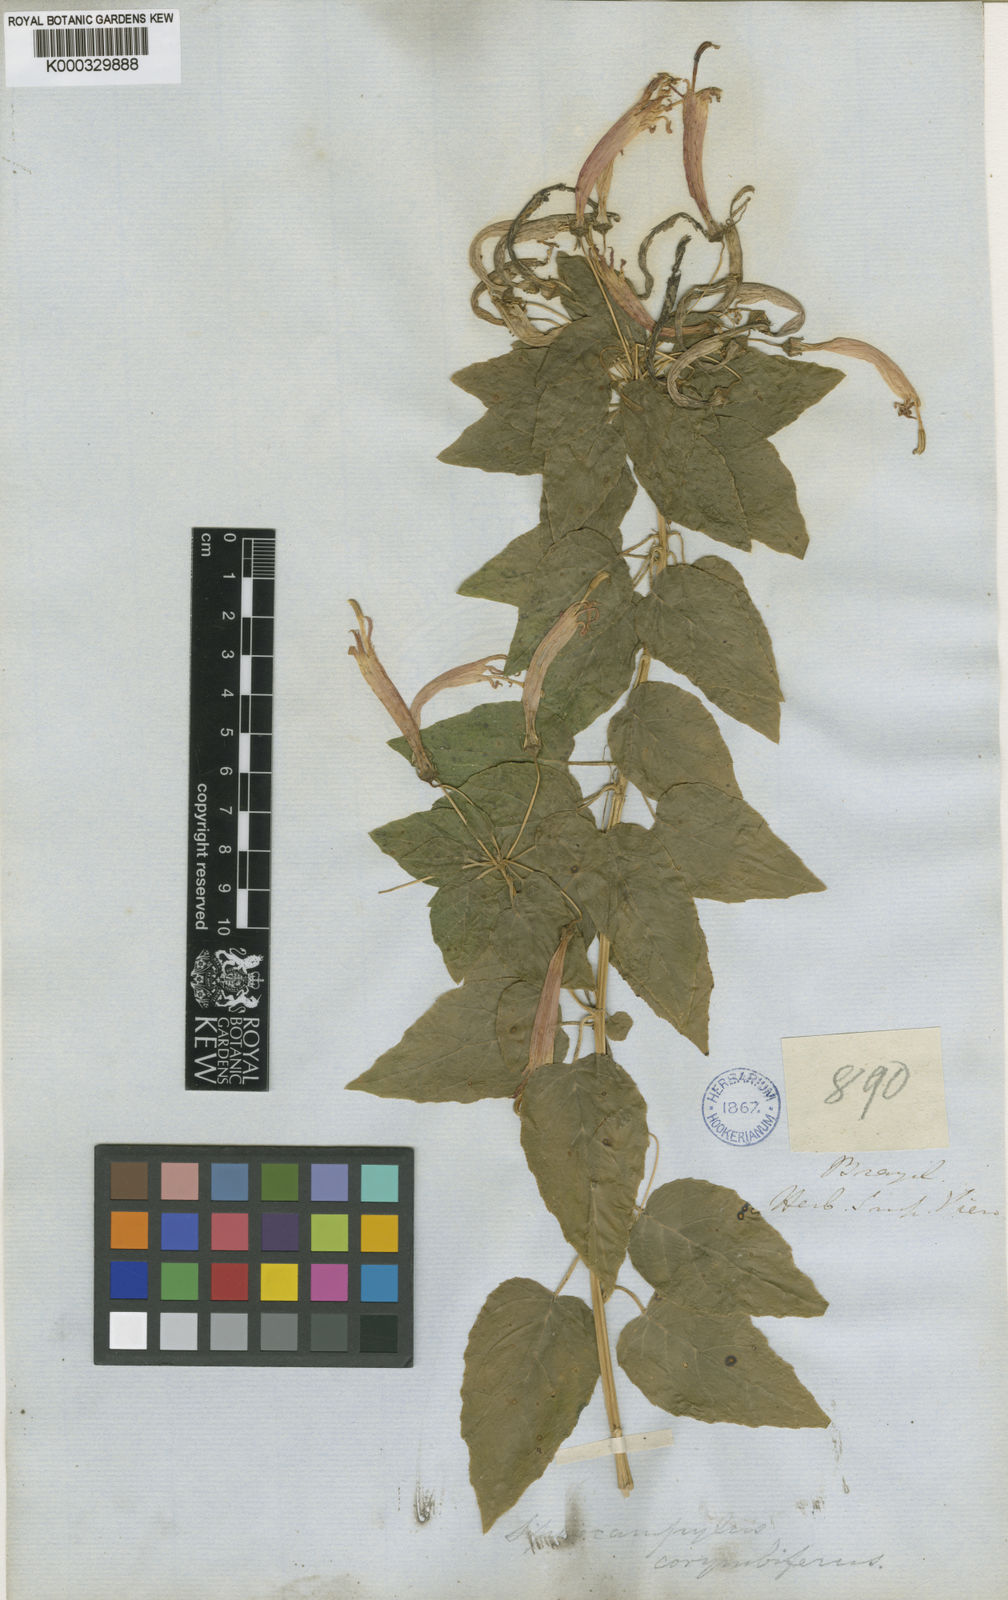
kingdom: Plantae
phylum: Tracheophyta
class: Magnoliopsida
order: Asterales
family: Campanulaceae
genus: Siphocampylus
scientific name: Siphocampylus corymbifer
